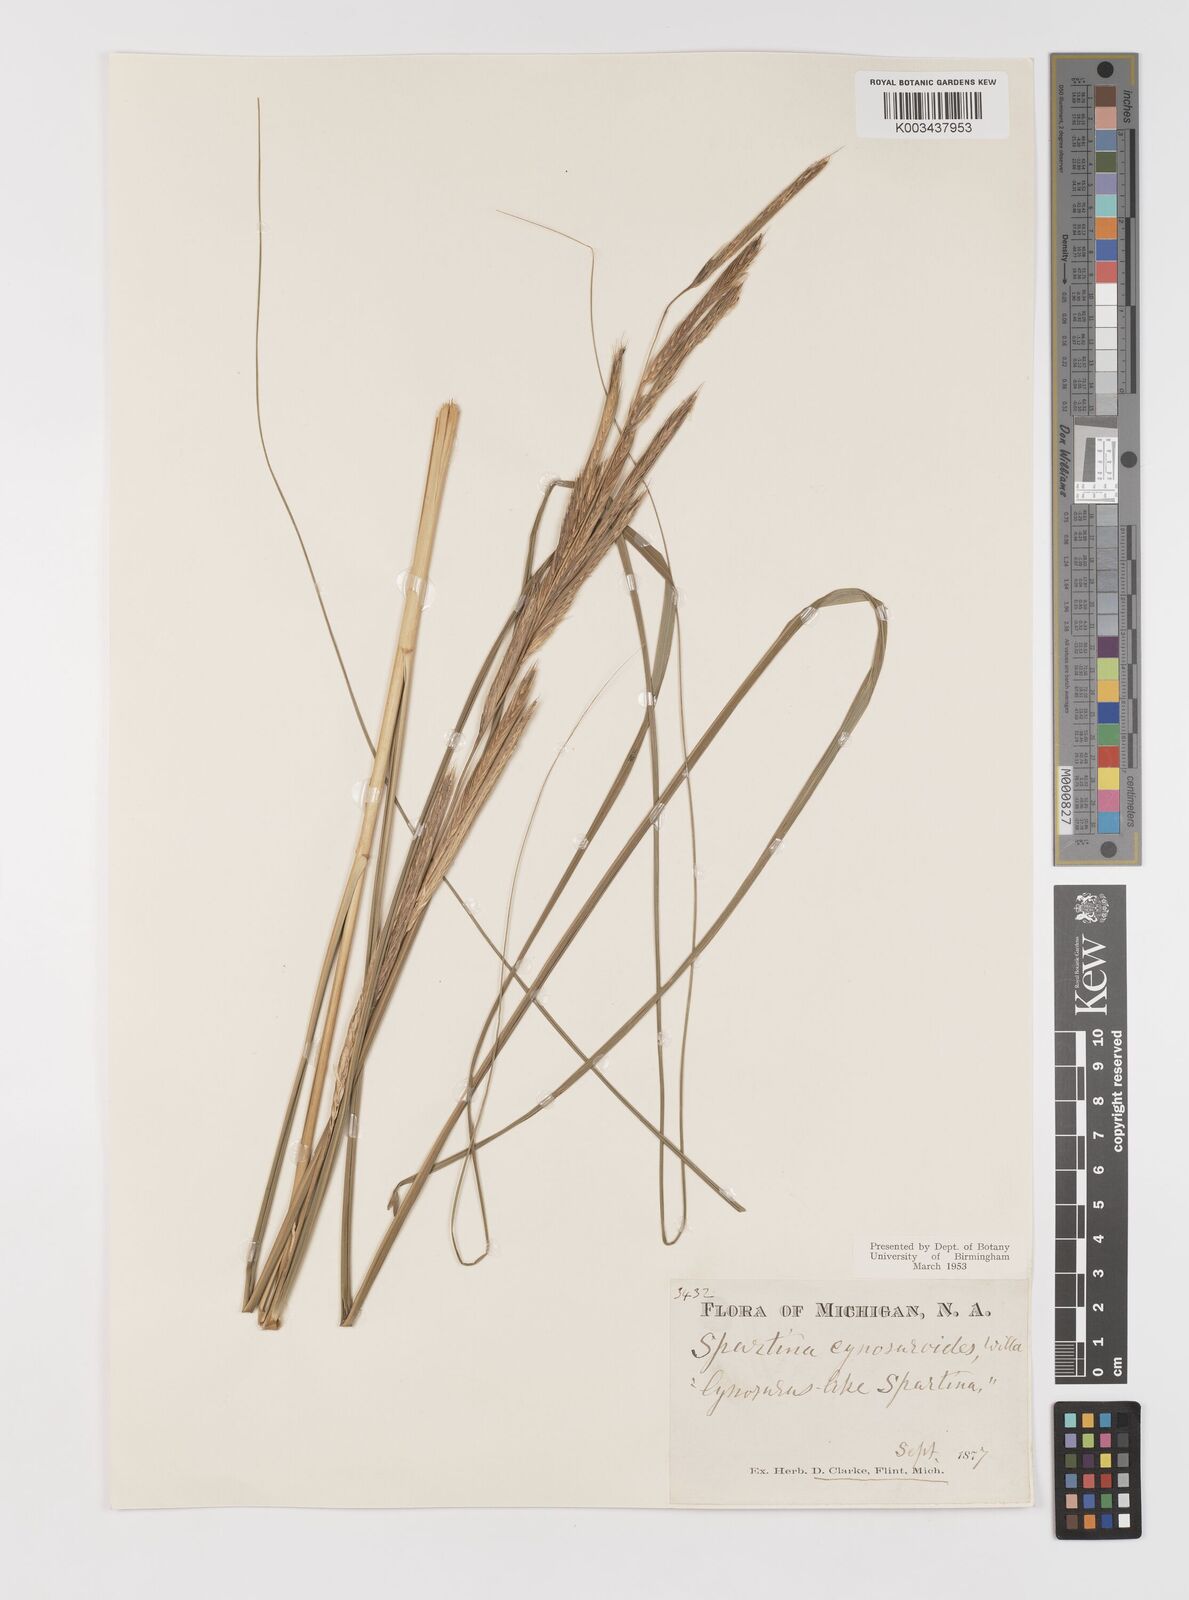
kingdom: Plantae
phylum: Tracheophyta
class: Liliopsida
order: Poales
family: Poaceae
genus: Sporobolus
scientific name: Sporobolus michauxianus
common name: Freshwater cordgrass
